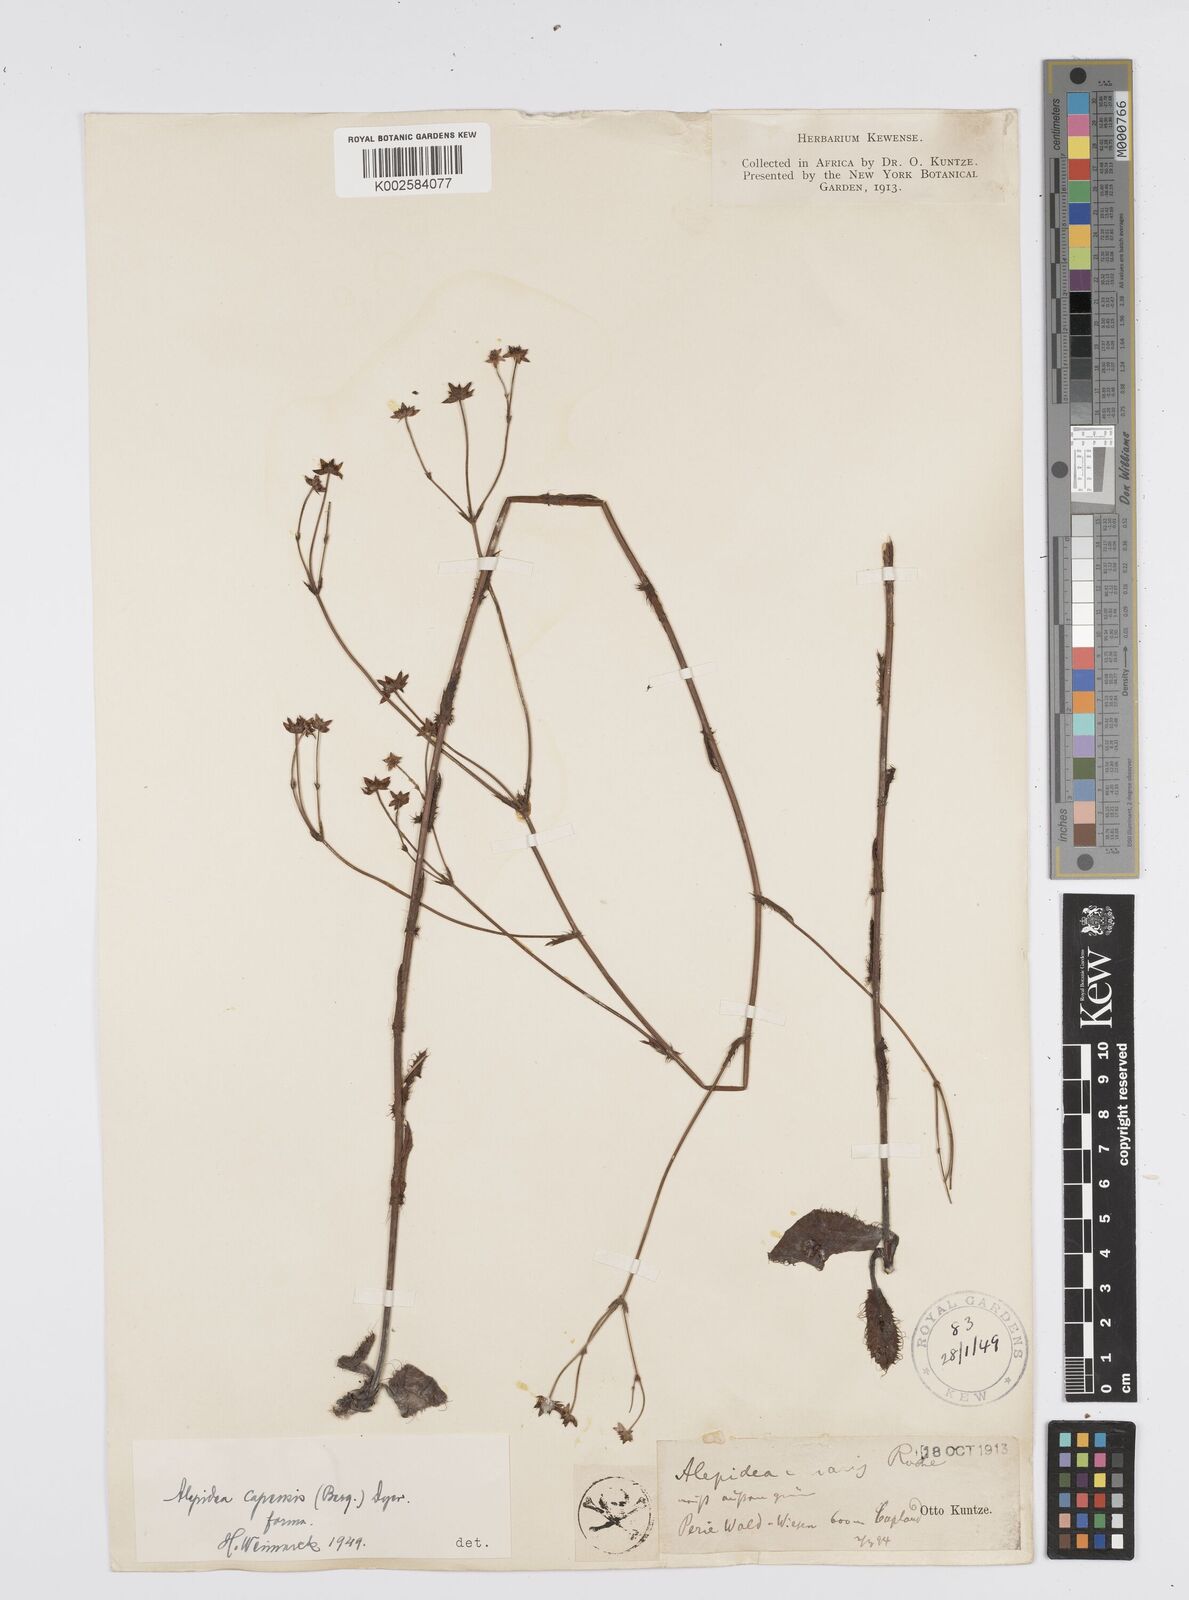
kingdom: Plantae
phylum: Tracheophyta
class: Magnoliopsida
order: Apiales
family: Apiaceae
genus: Alepidea
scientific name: Alepidea capensis
